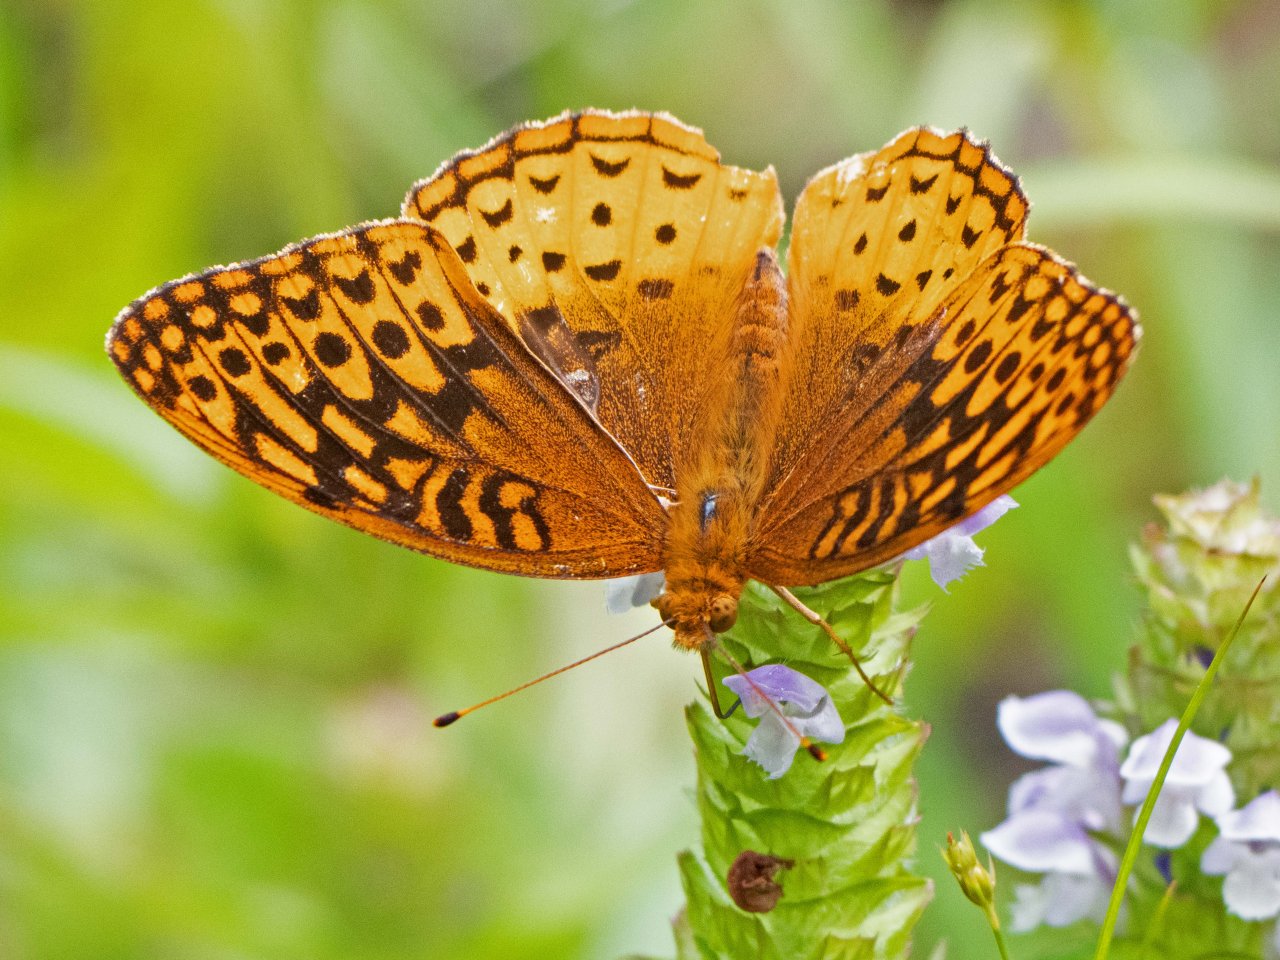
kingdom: Animalia
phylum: Arthropoda
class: Insecta
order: Lepidoptera
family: Nymphalidae
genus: Speyeria
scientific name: Speyeria cybele
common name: Great Spangled Fritillary
